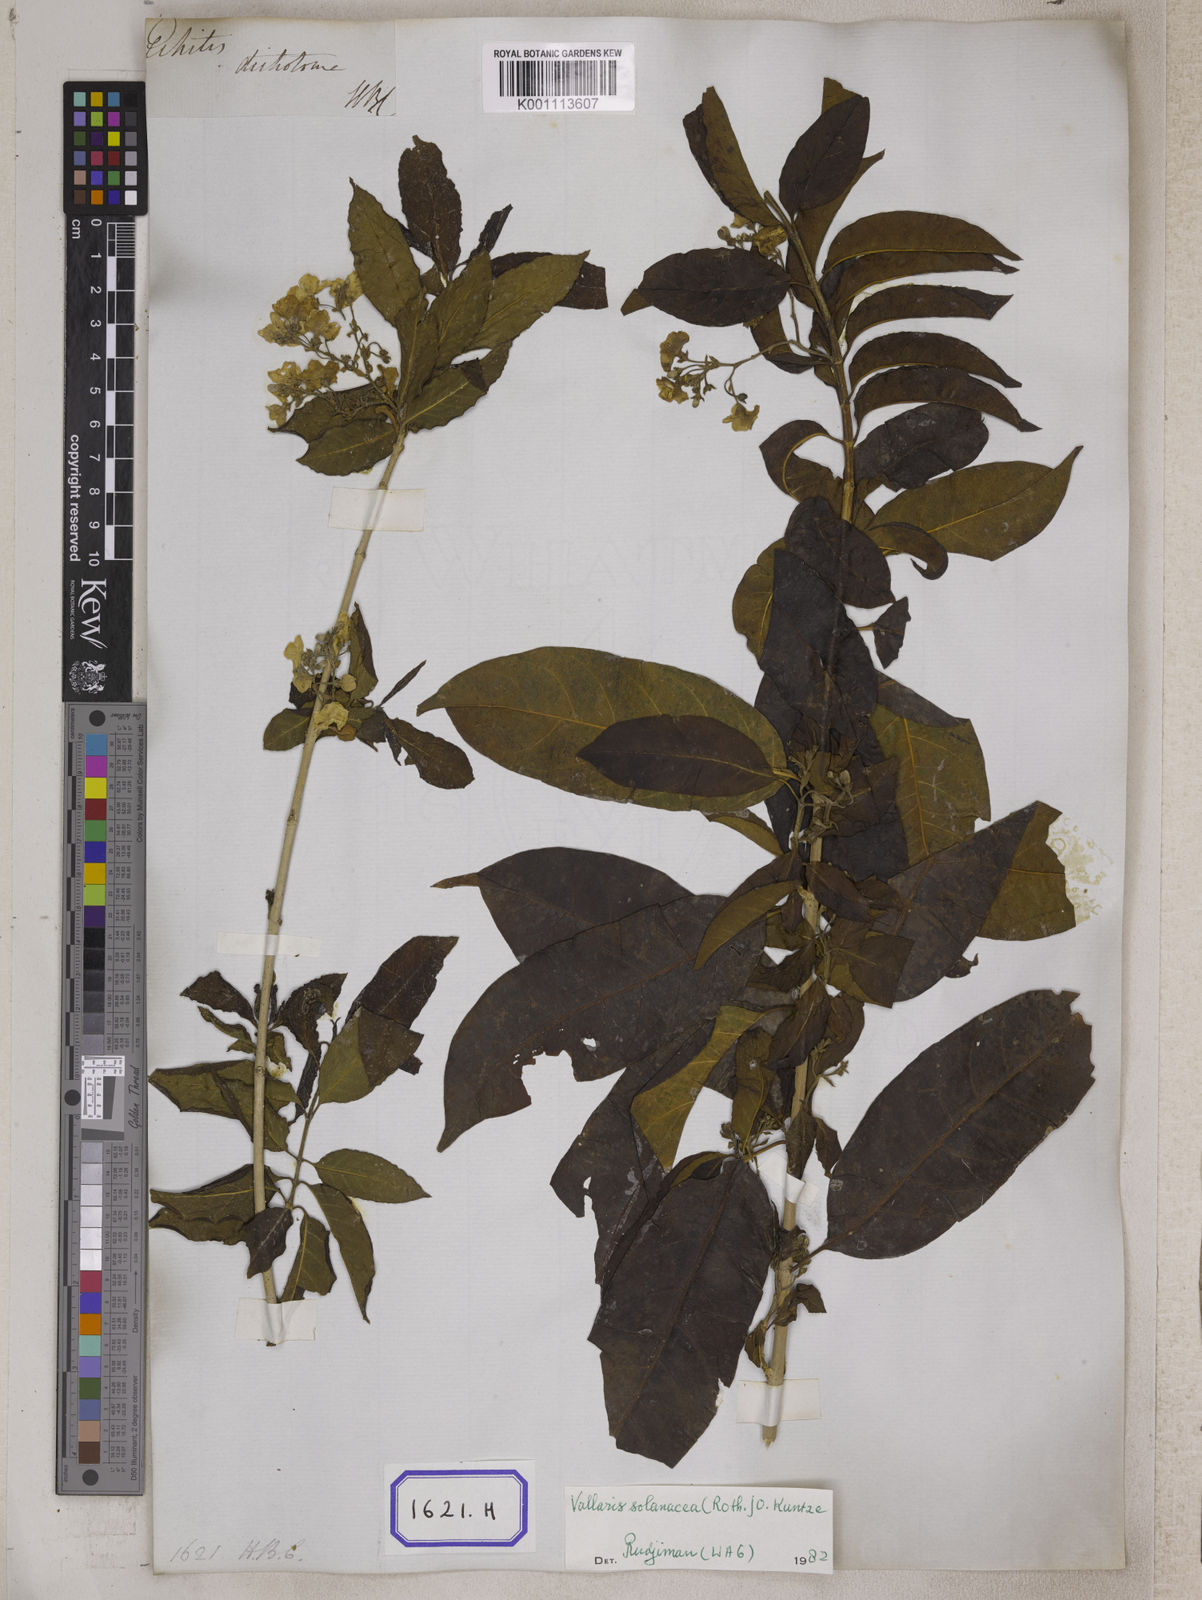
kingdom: Plantae
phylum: Tracheophyta
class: Magnoliopsida
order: Gentianales
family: Apocynaceae
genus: Vallaris
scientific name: Vallaris glabra
